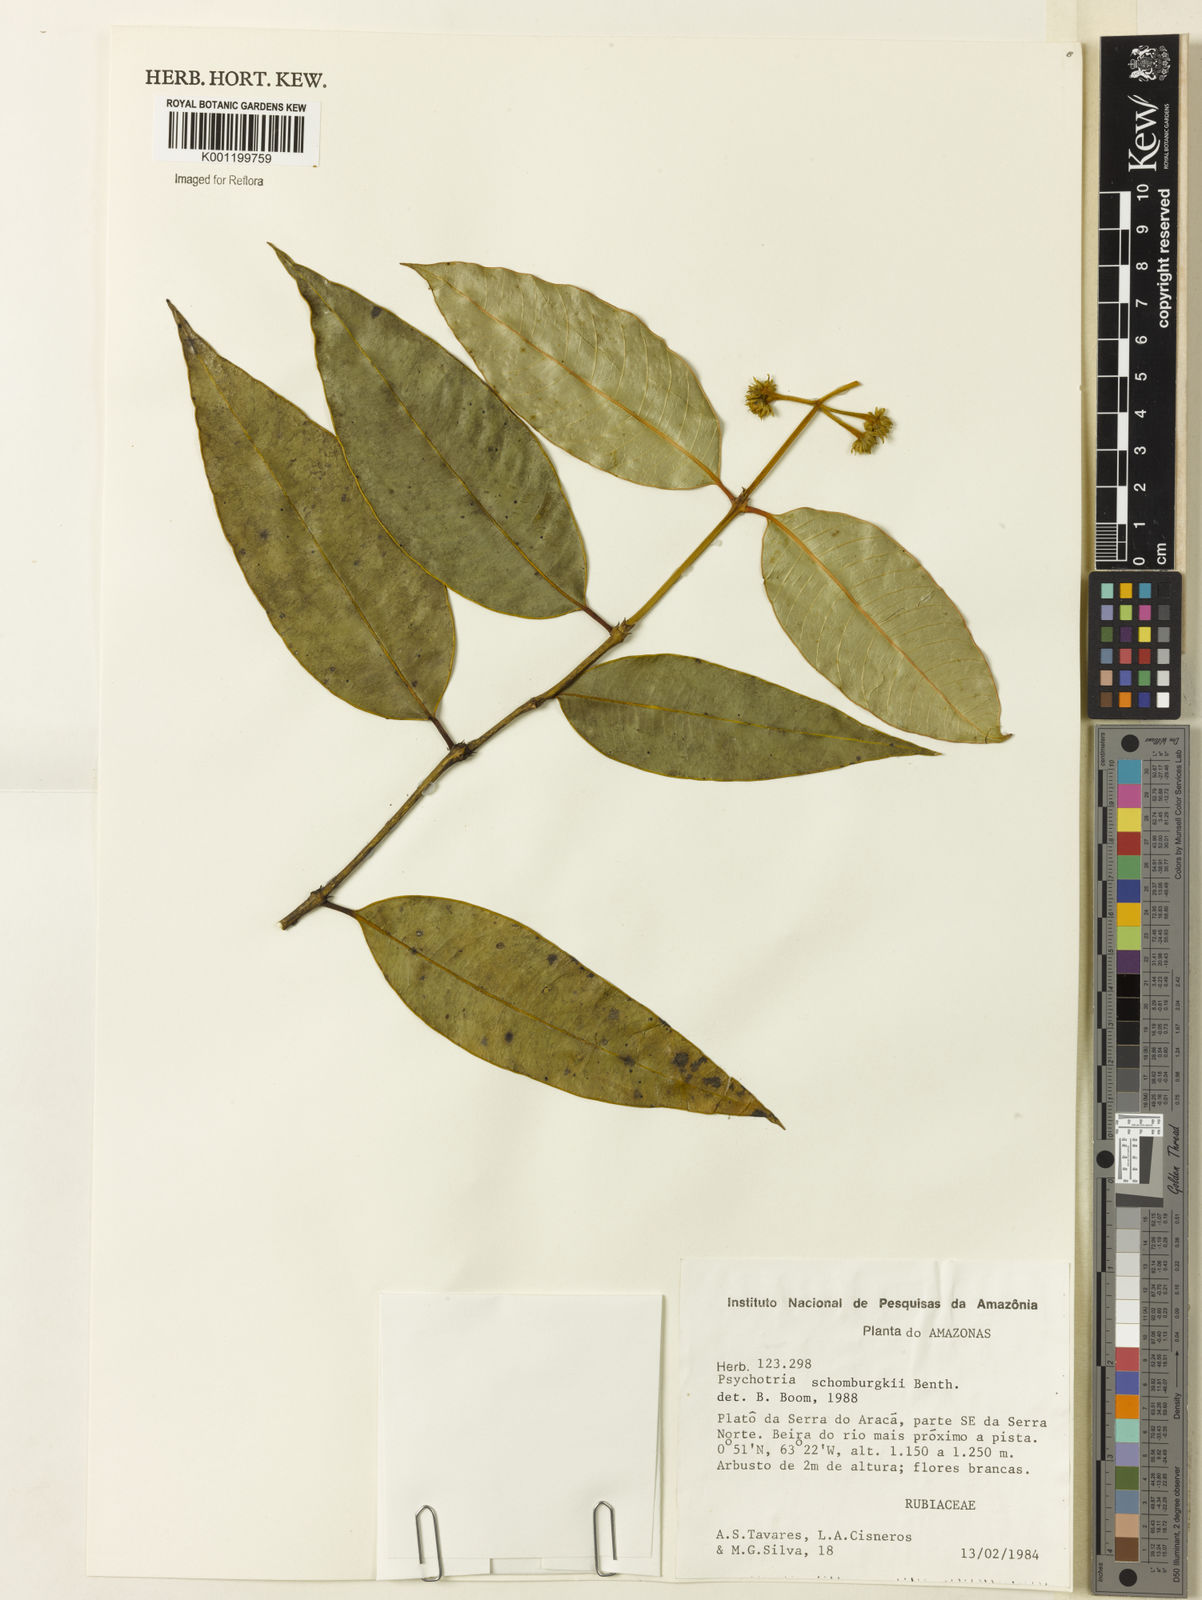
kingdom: Plantae
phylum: Tracheophyta
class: Magnoliopsida
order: Gentianales
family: Rubiaceae
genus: Palicourea
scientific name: Palicourea schomburgkii
